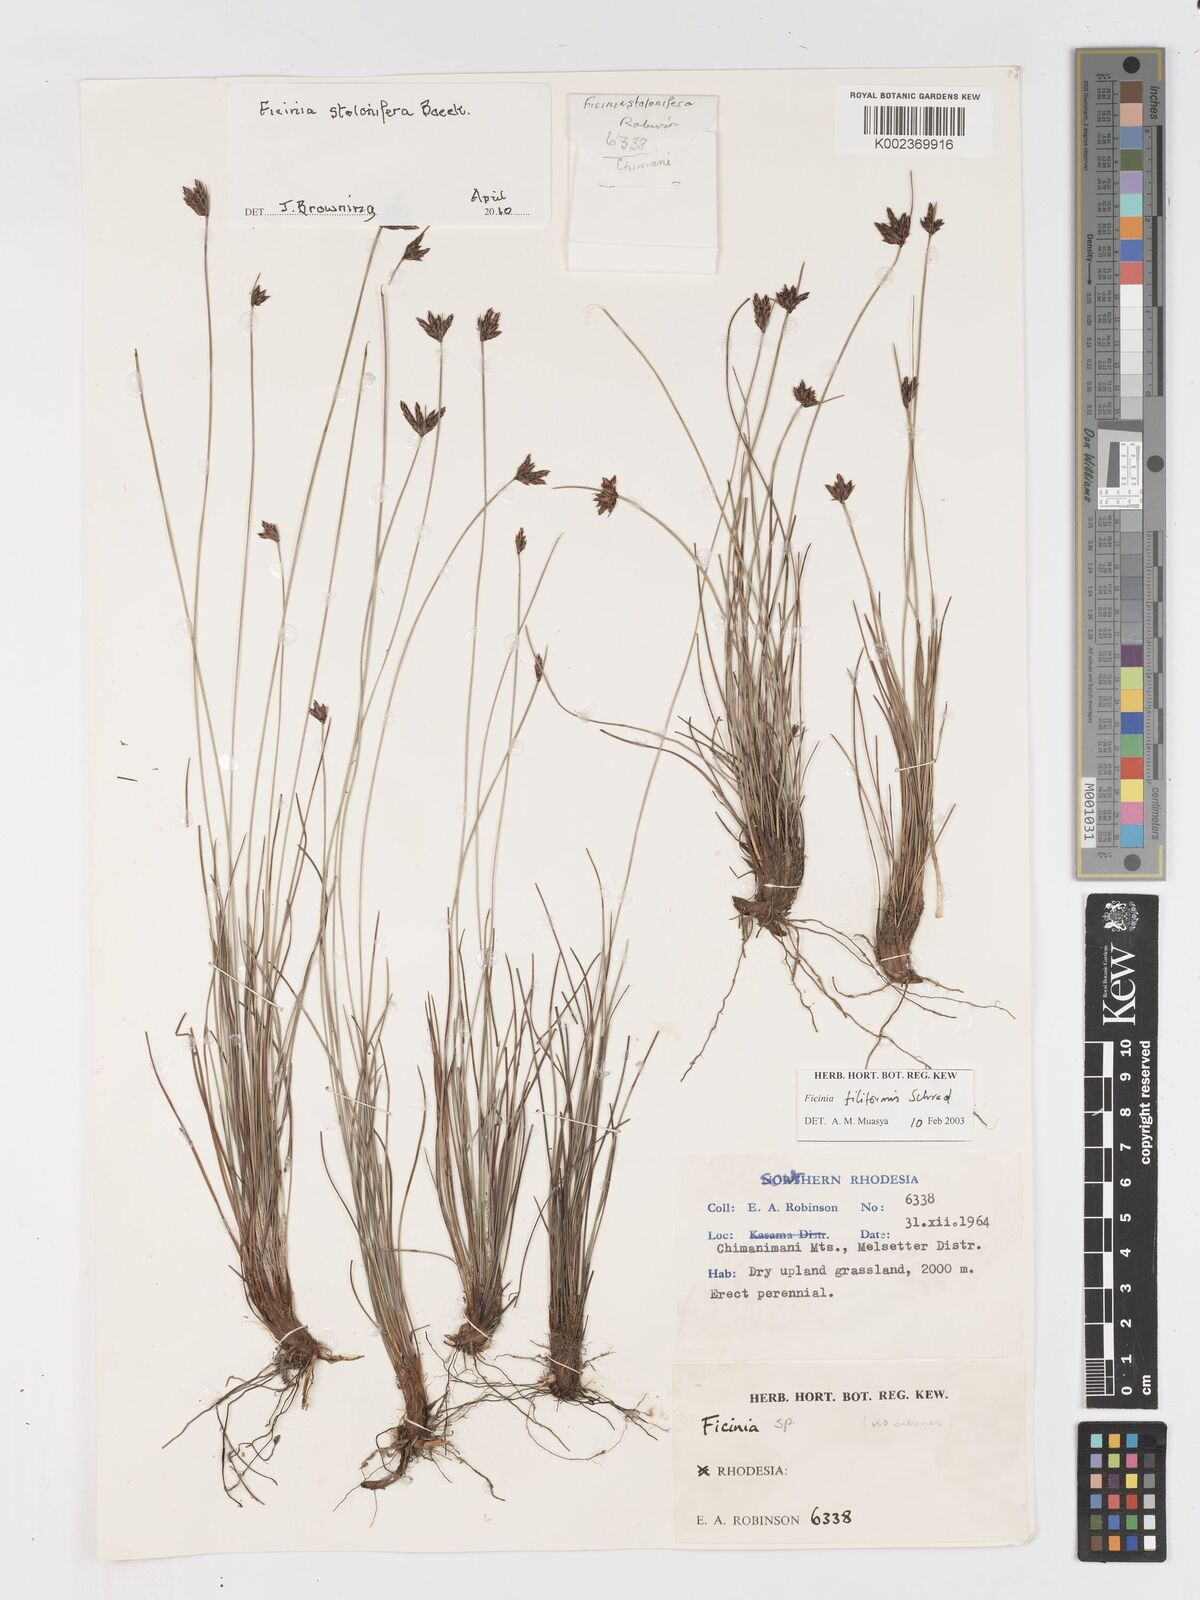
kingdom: Plantae
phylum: Tracheophyta
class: Liliopsida
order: Poales
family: Cyperaceae
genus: Ficinia
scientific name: Ficinia stolonifera
